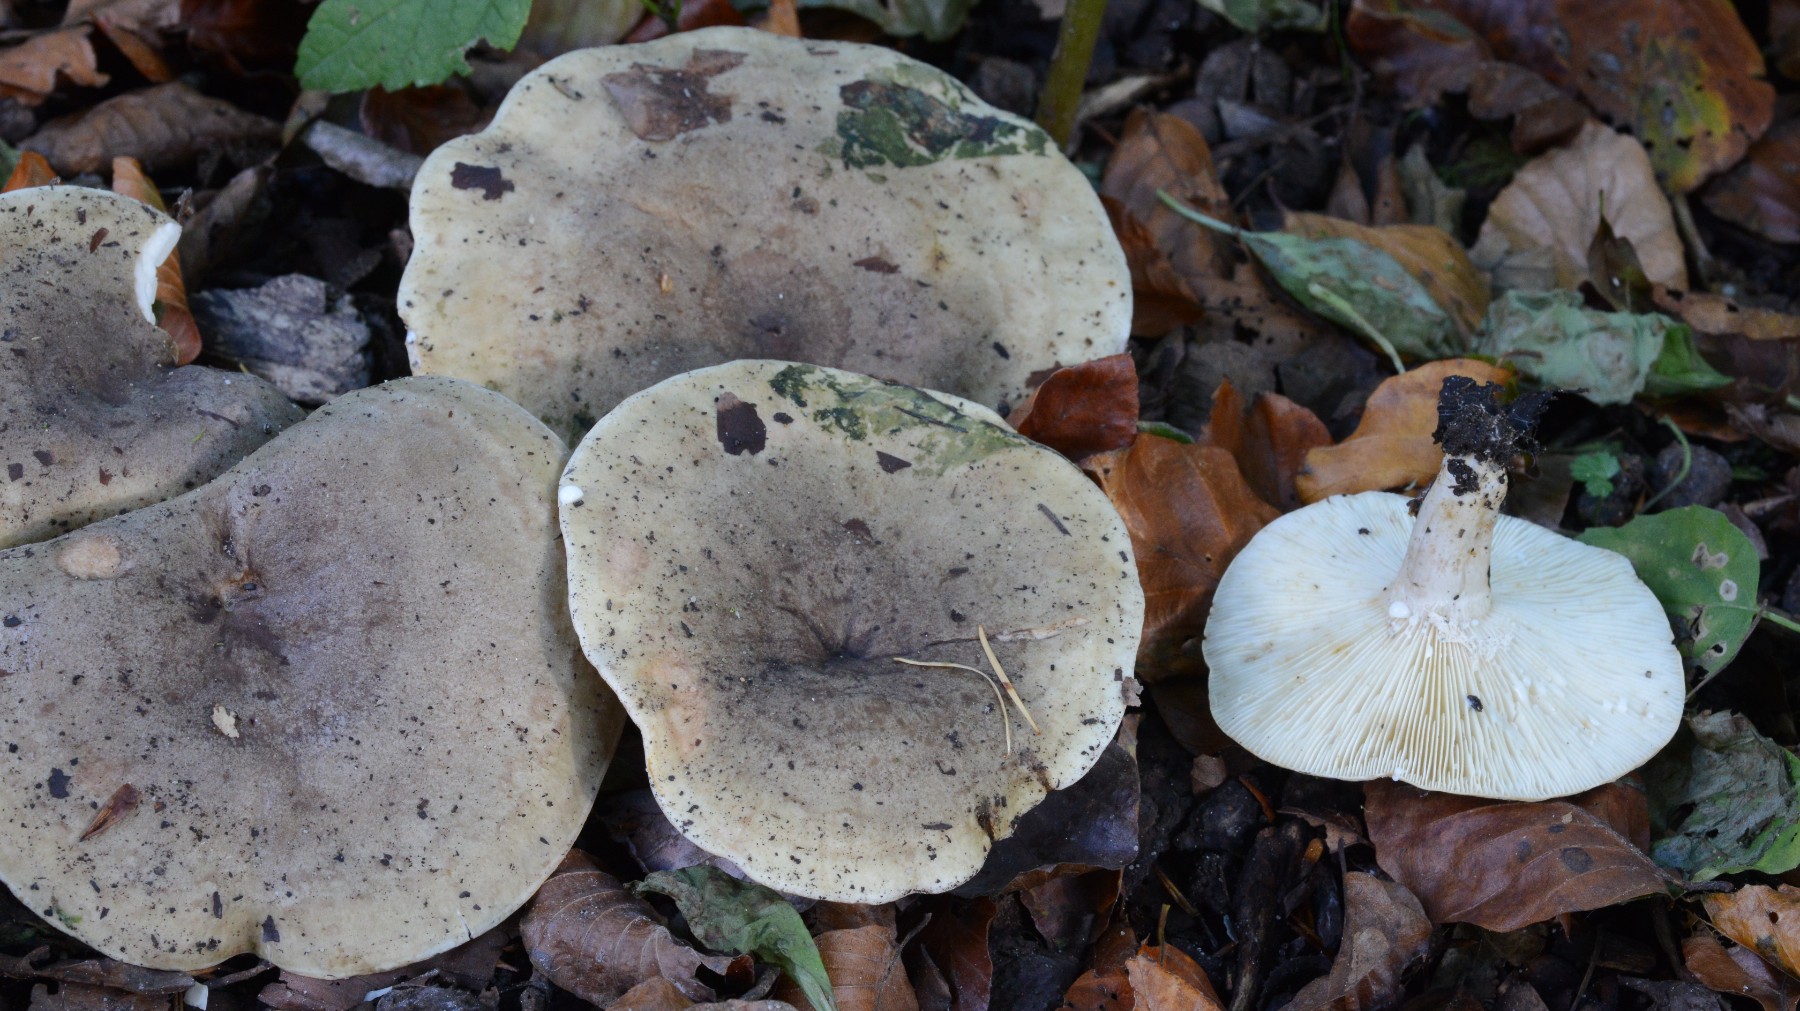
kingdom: Fungi
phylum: Basidiomycota
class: Agaricomycetes
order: Russulales
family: Russulaceae
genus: Lactarius
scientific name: Lactarius fluens
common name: lysrandet mælkehat
